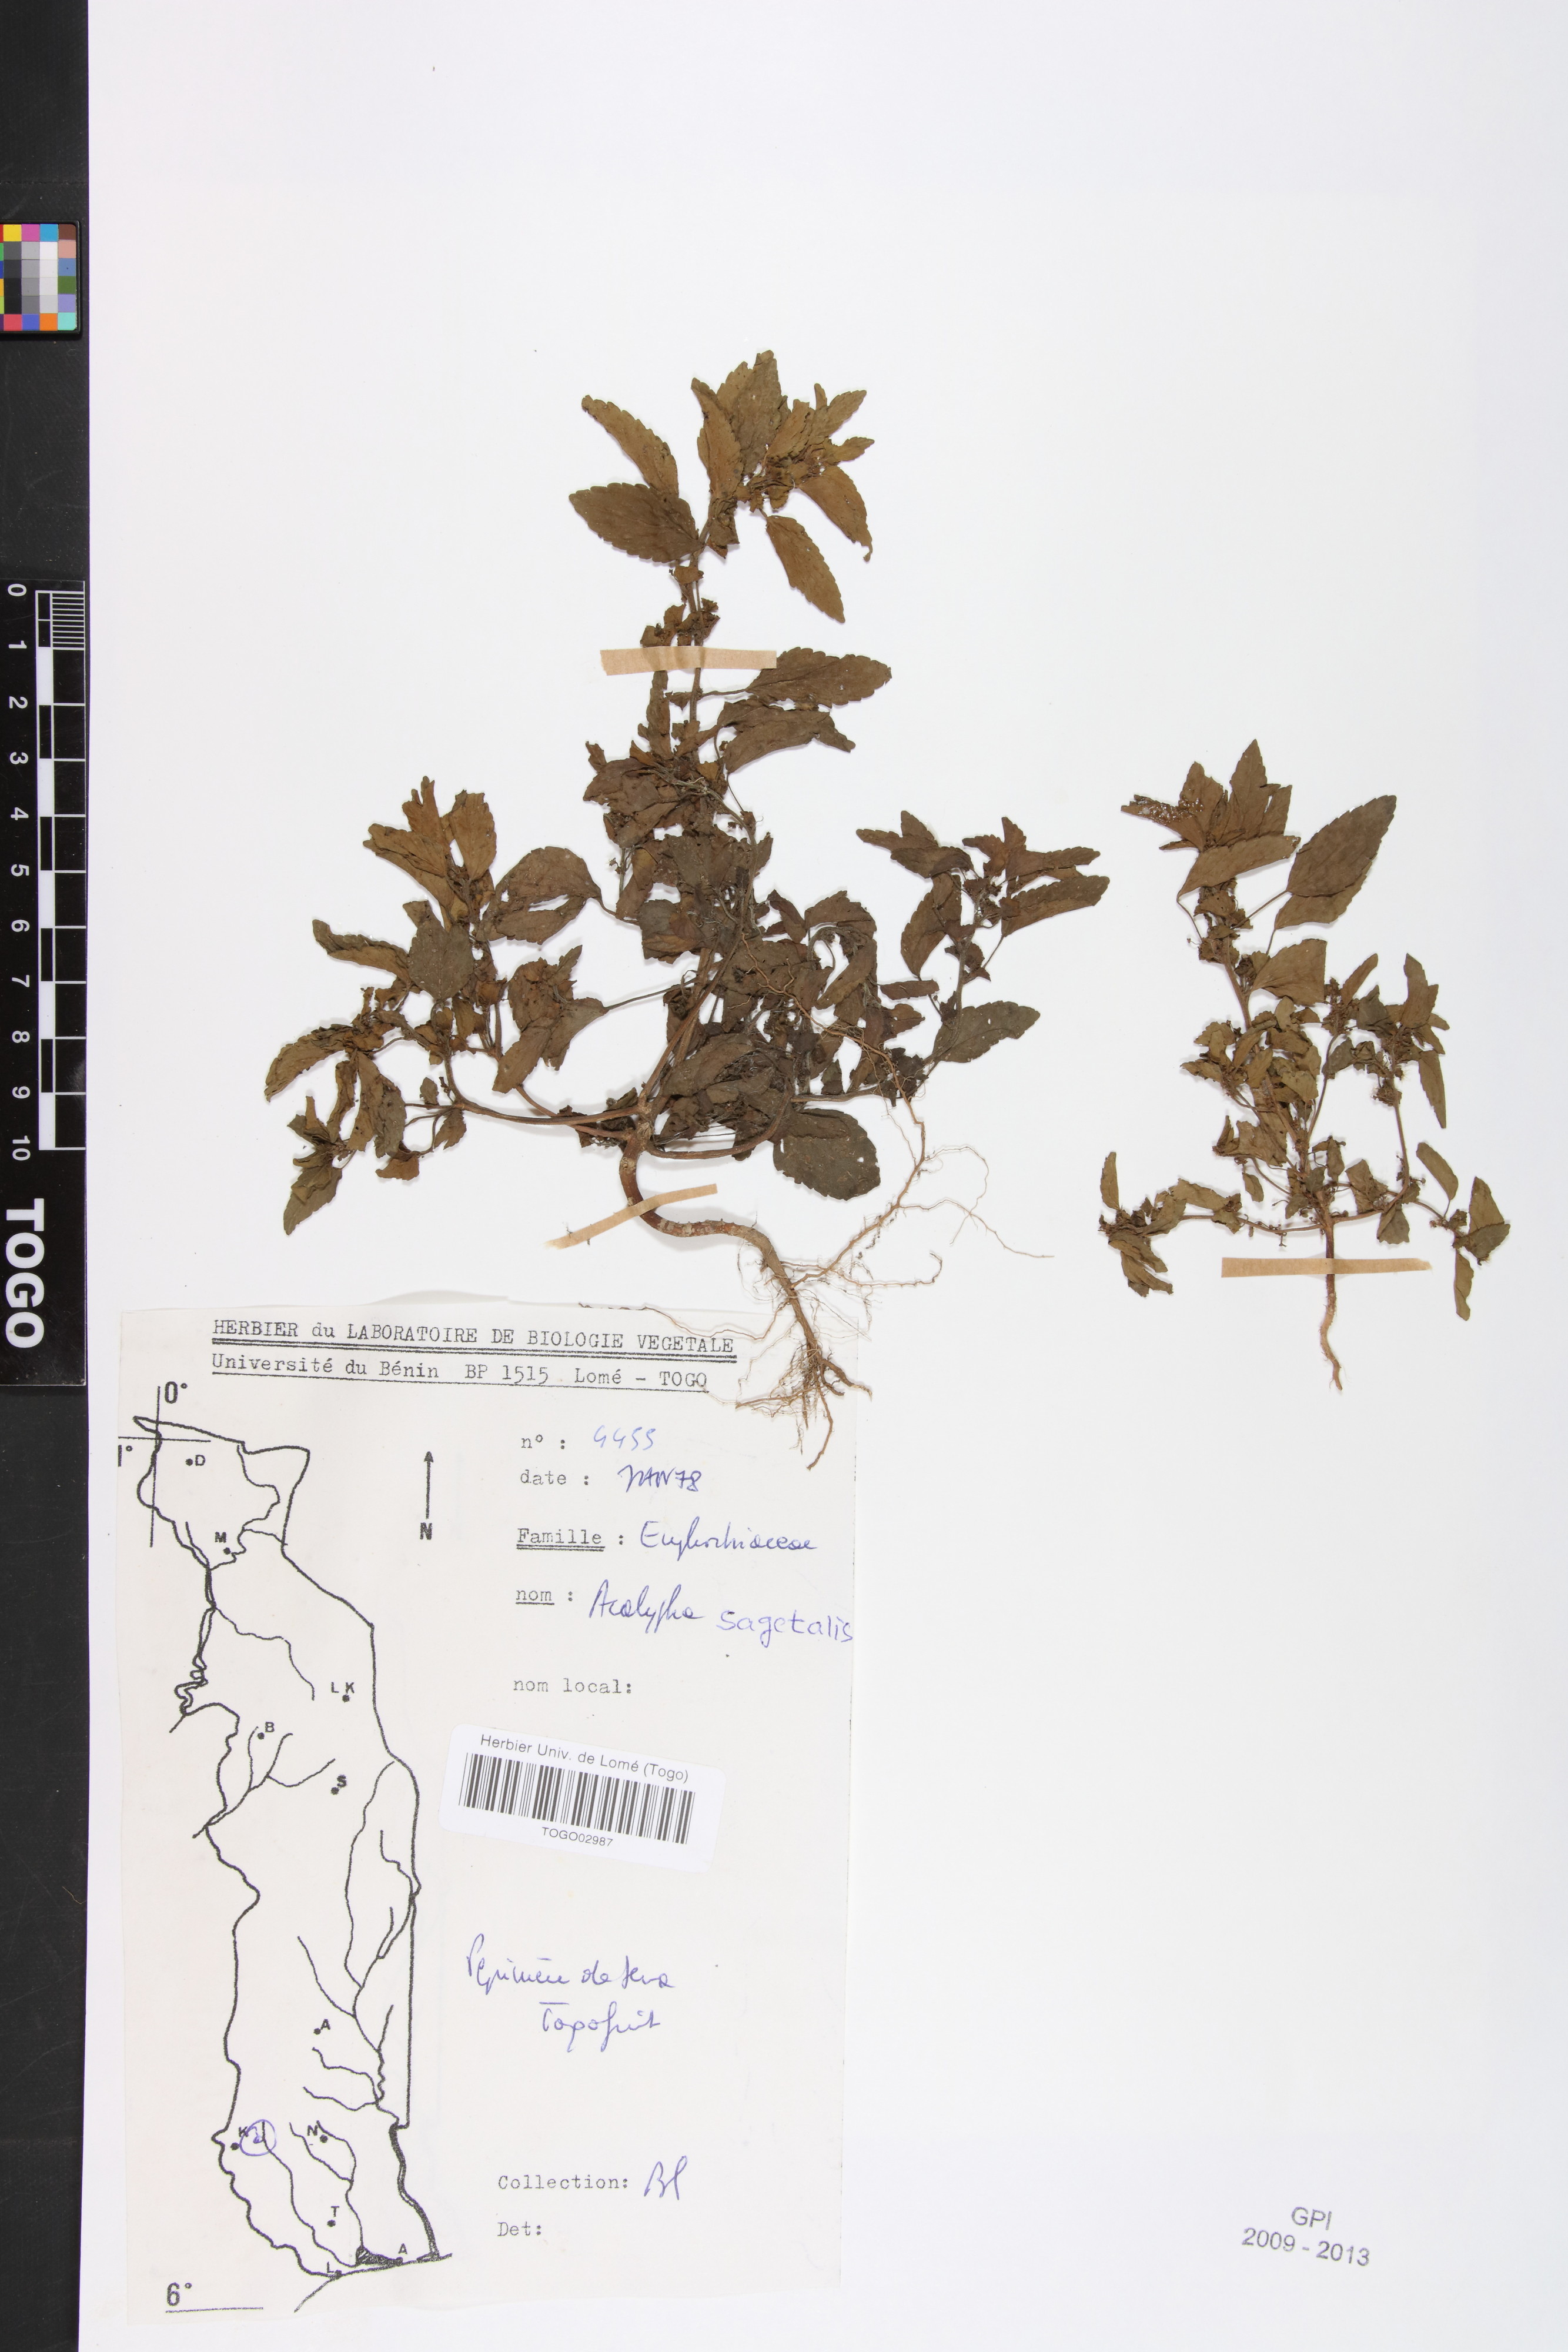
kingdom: Plantae
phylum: Tracheophyta
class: Magnoliopsida
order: Malpighiales
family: Euphorbiaceae
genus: Acalypha
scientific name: Acalypha segetalis
